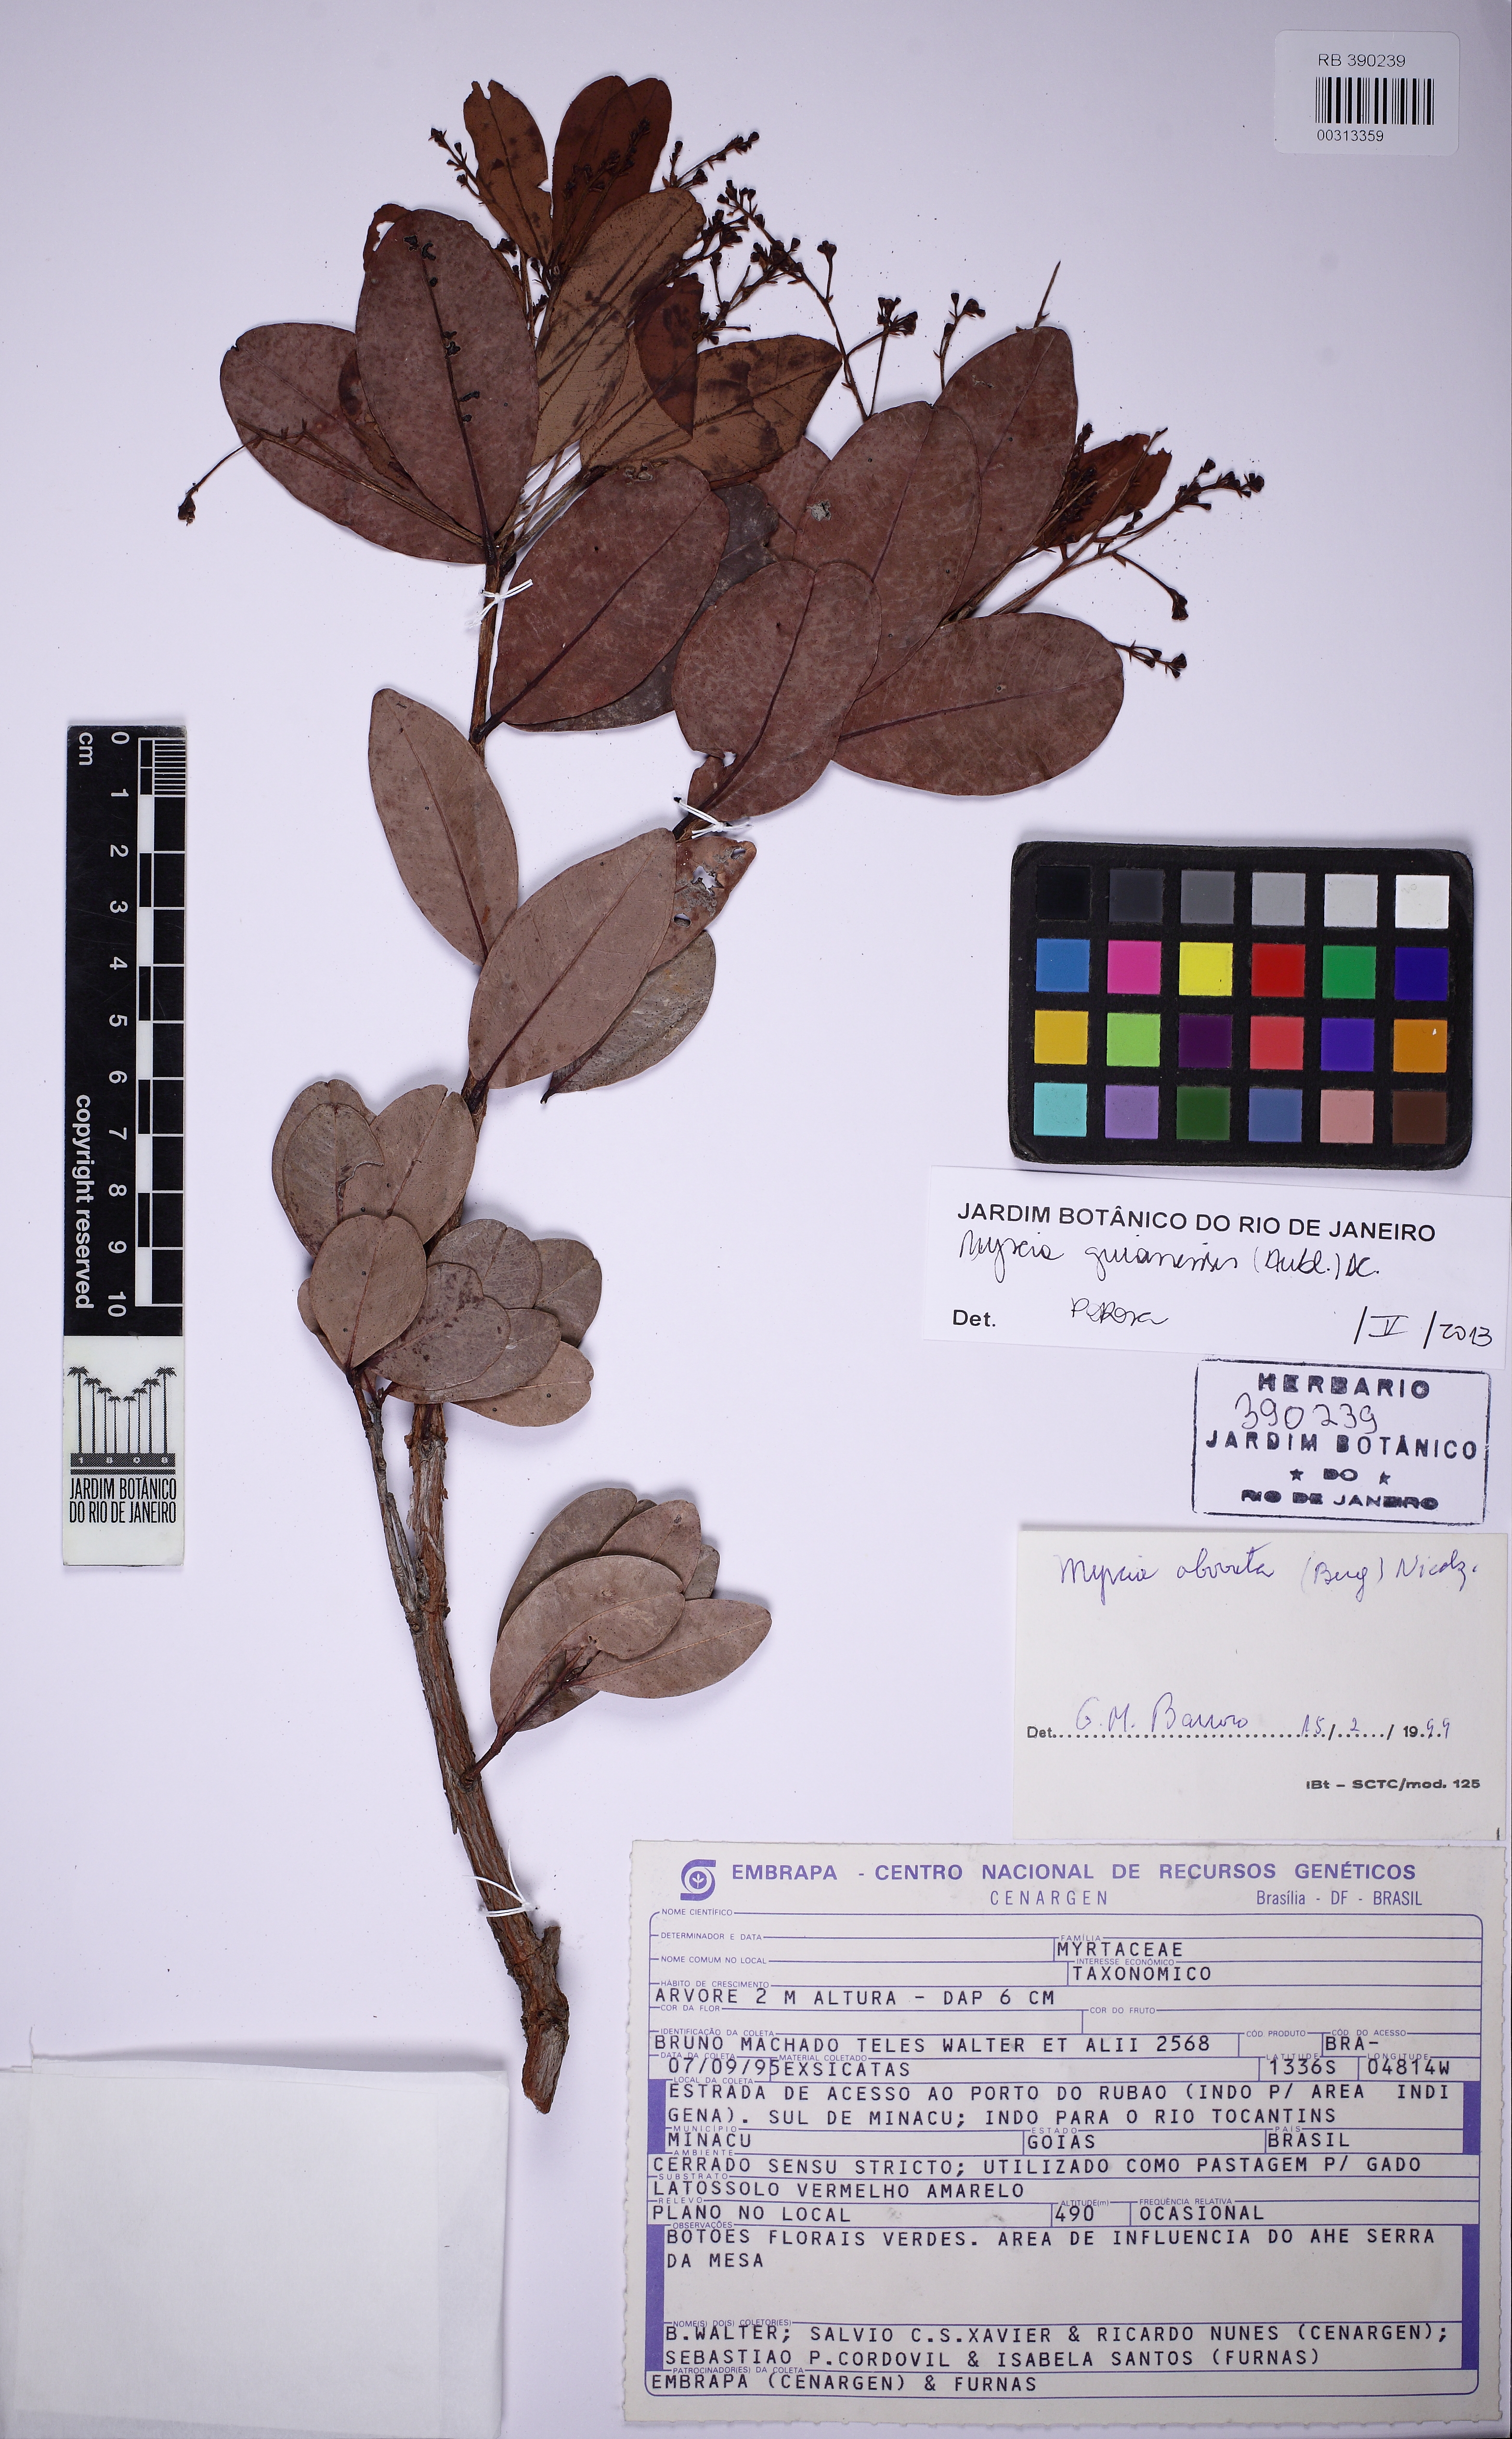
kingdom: Plantae
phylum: Tracheophyta
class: Magnoliopsida
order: Myrtales
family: Myrtaceae
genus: Myrcia
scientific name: Myrcia guianensis
